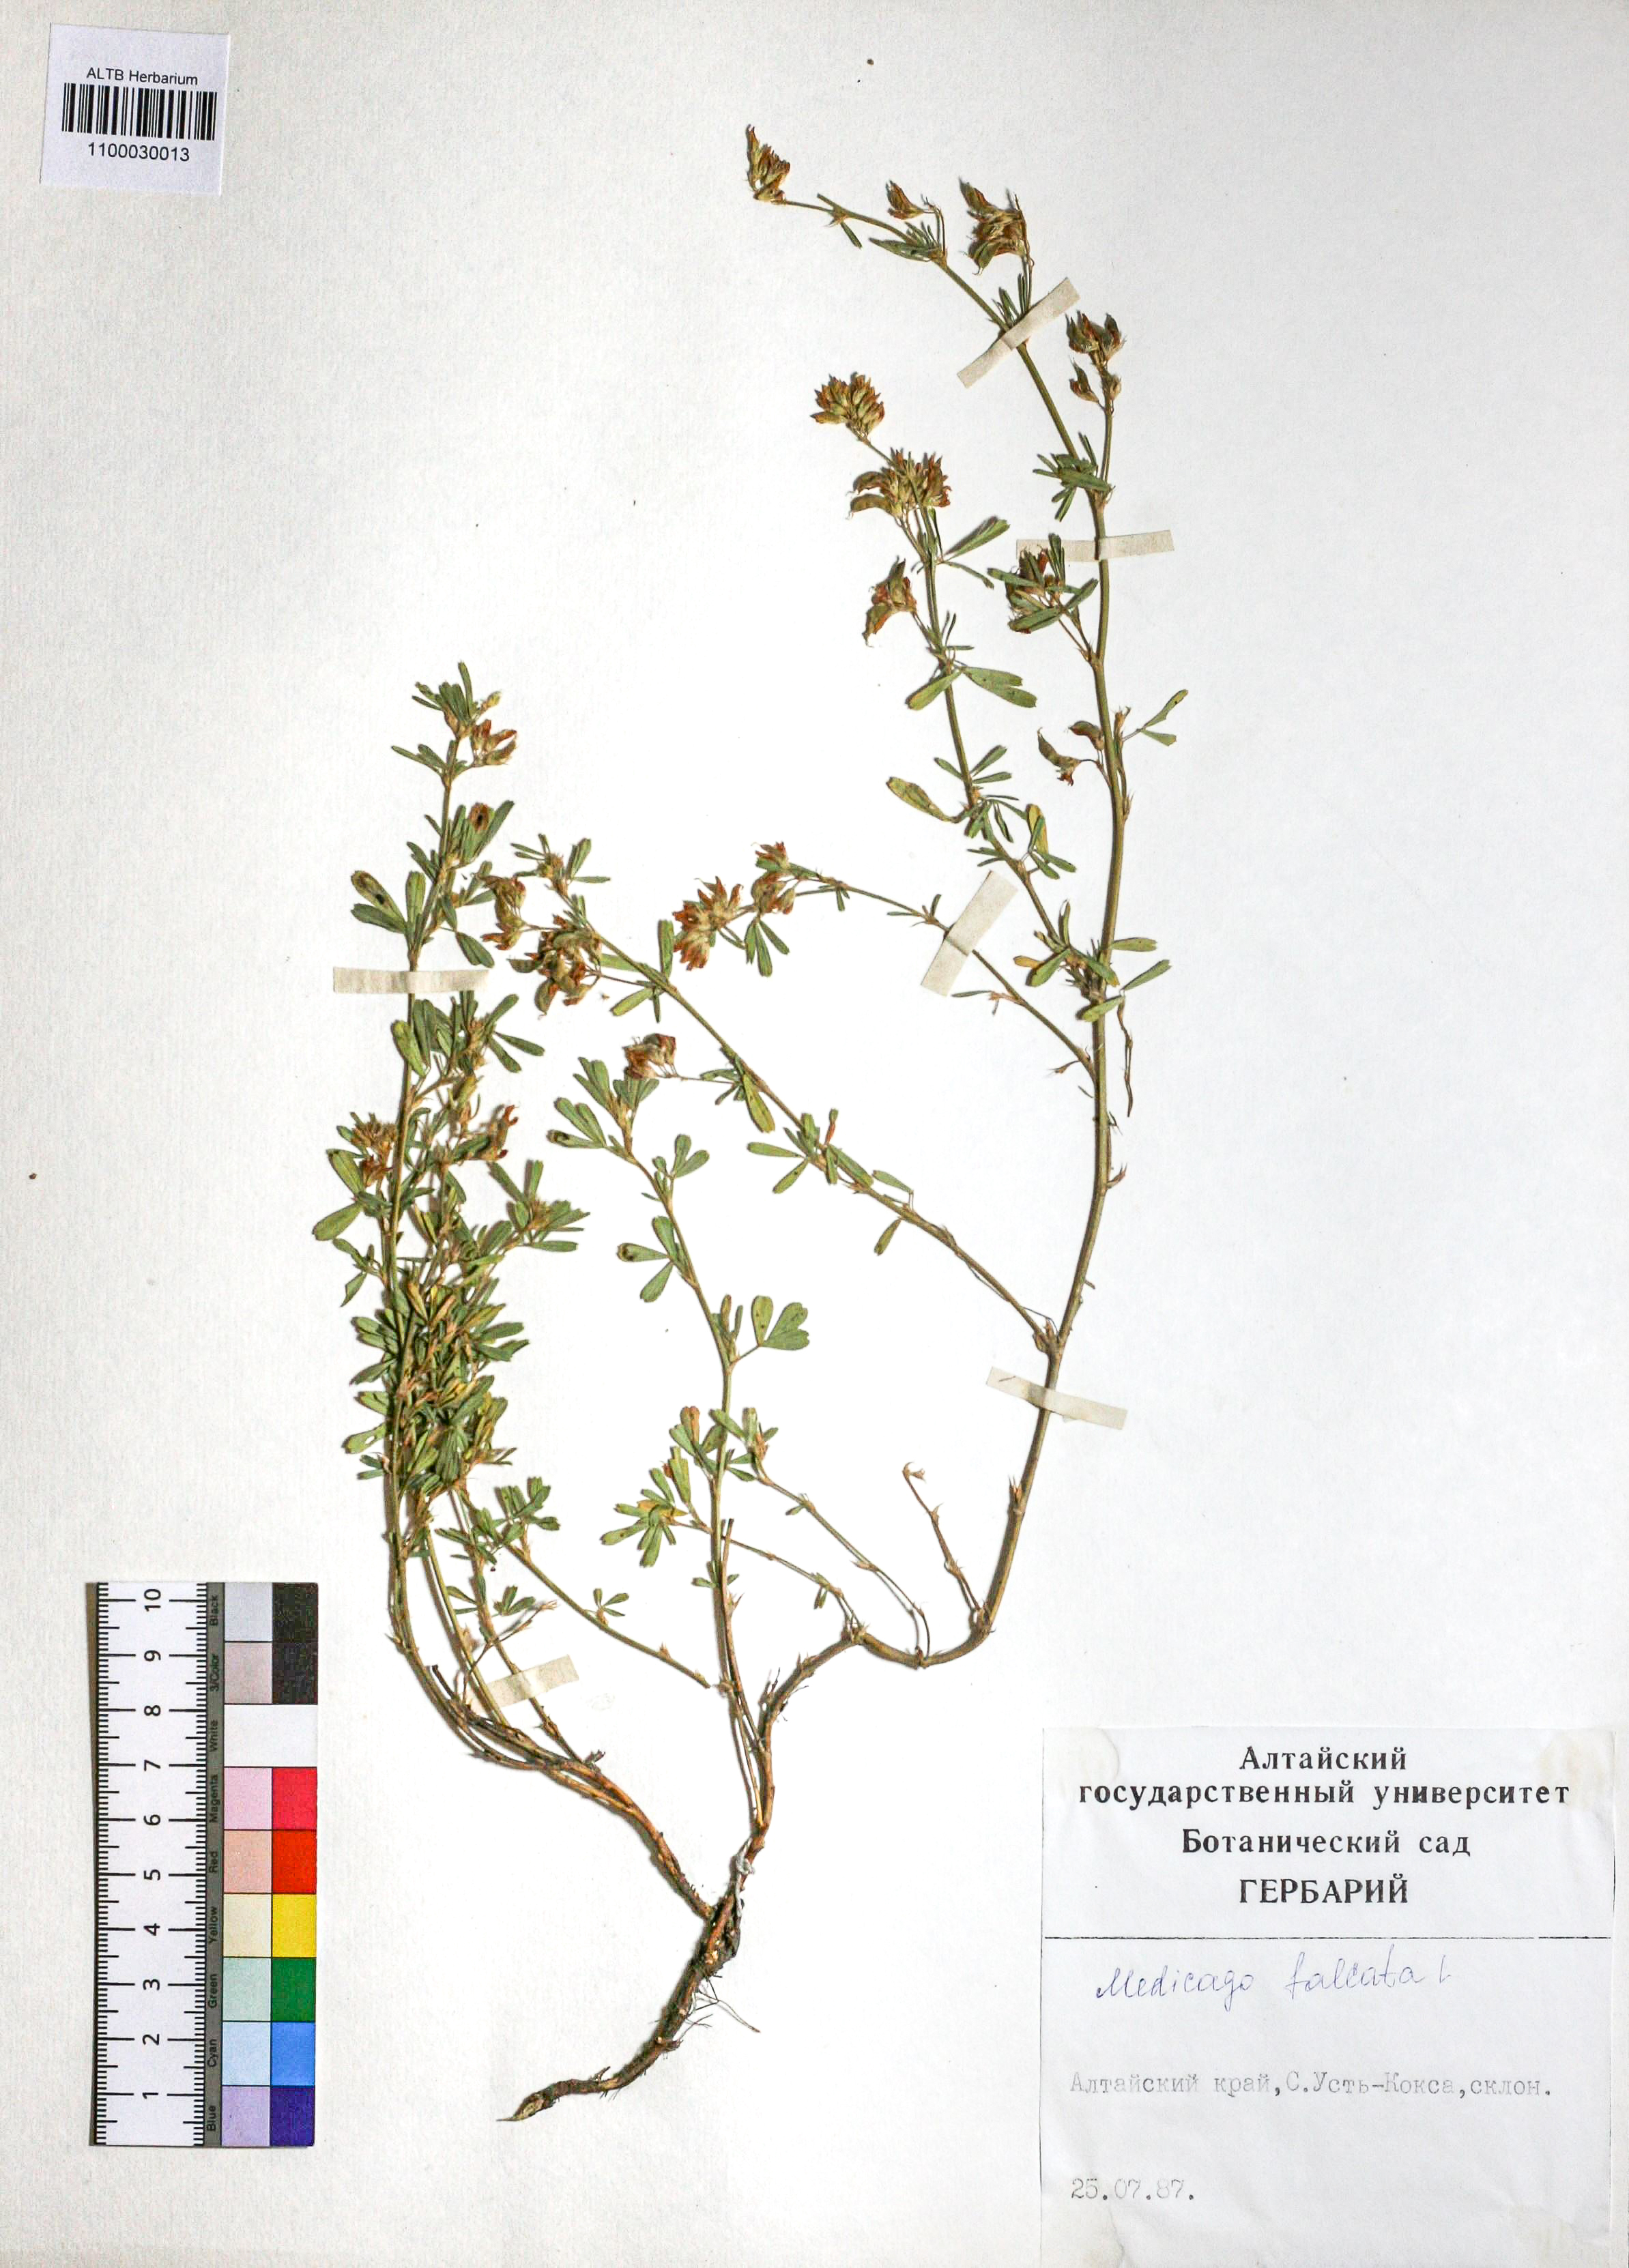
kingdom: Plantae
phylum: Tracheophyta
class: Magnoliopsida
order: Fabales
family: Fabaceae
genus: Medicago
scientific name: Medicago falcata
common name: Sickle medick
